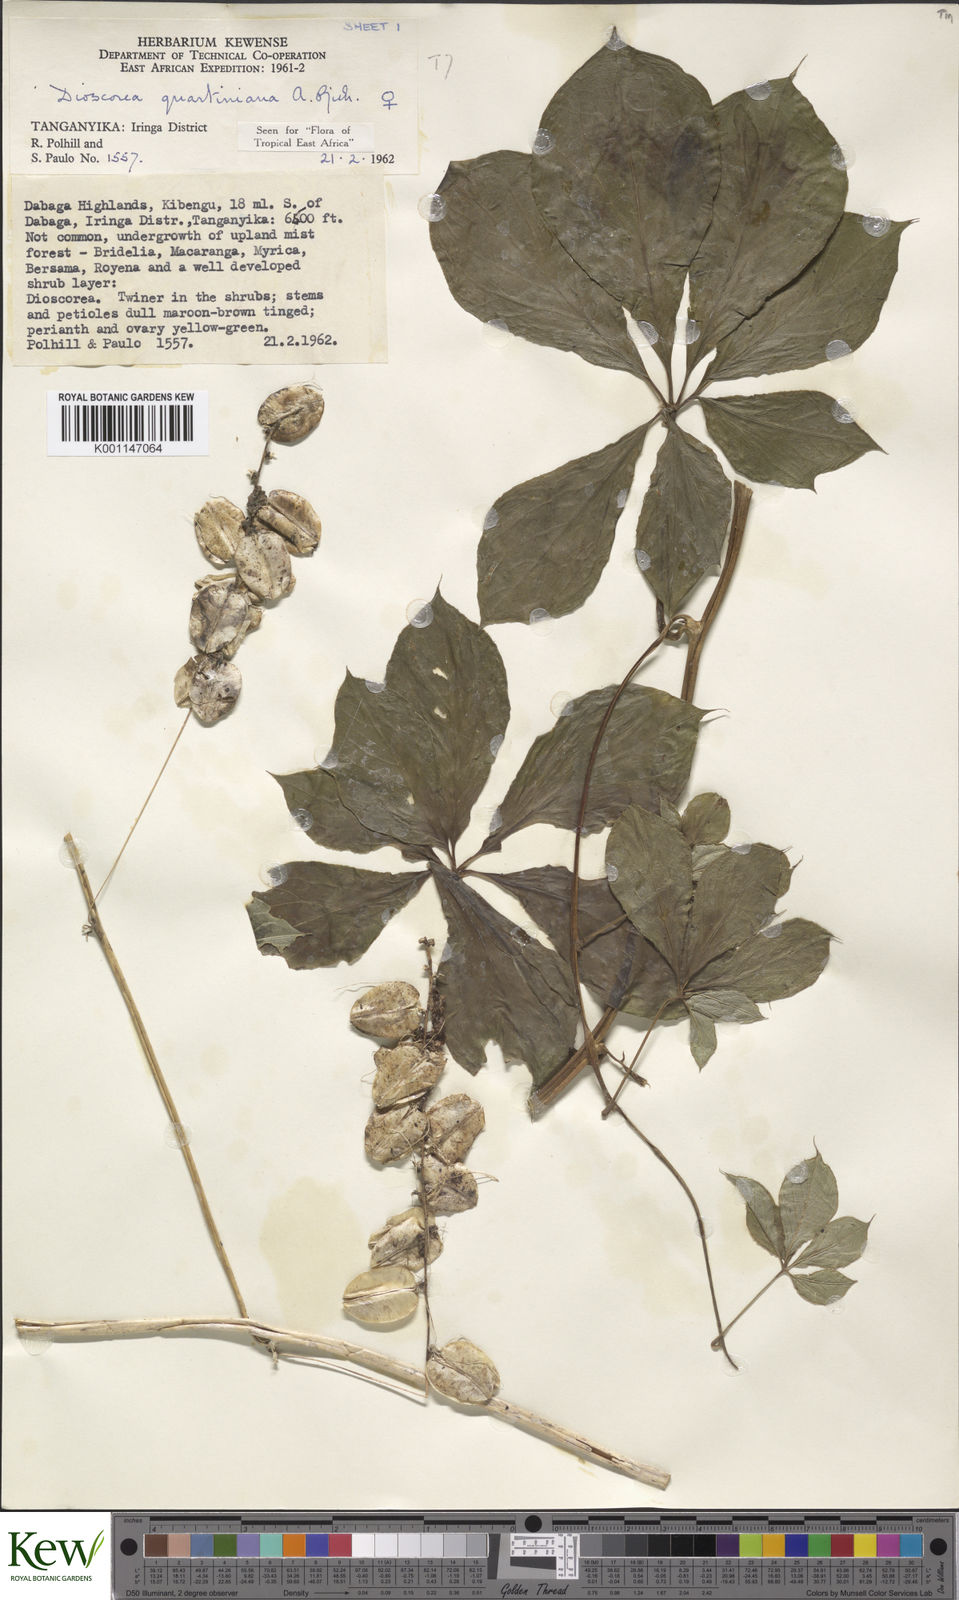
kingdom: Plantae
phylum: Tracheophyta
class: Liliopsida
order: Dioscoreales
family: Dioscoreaceae
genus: Dioscorea
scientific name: Dioscorea quartiniana
